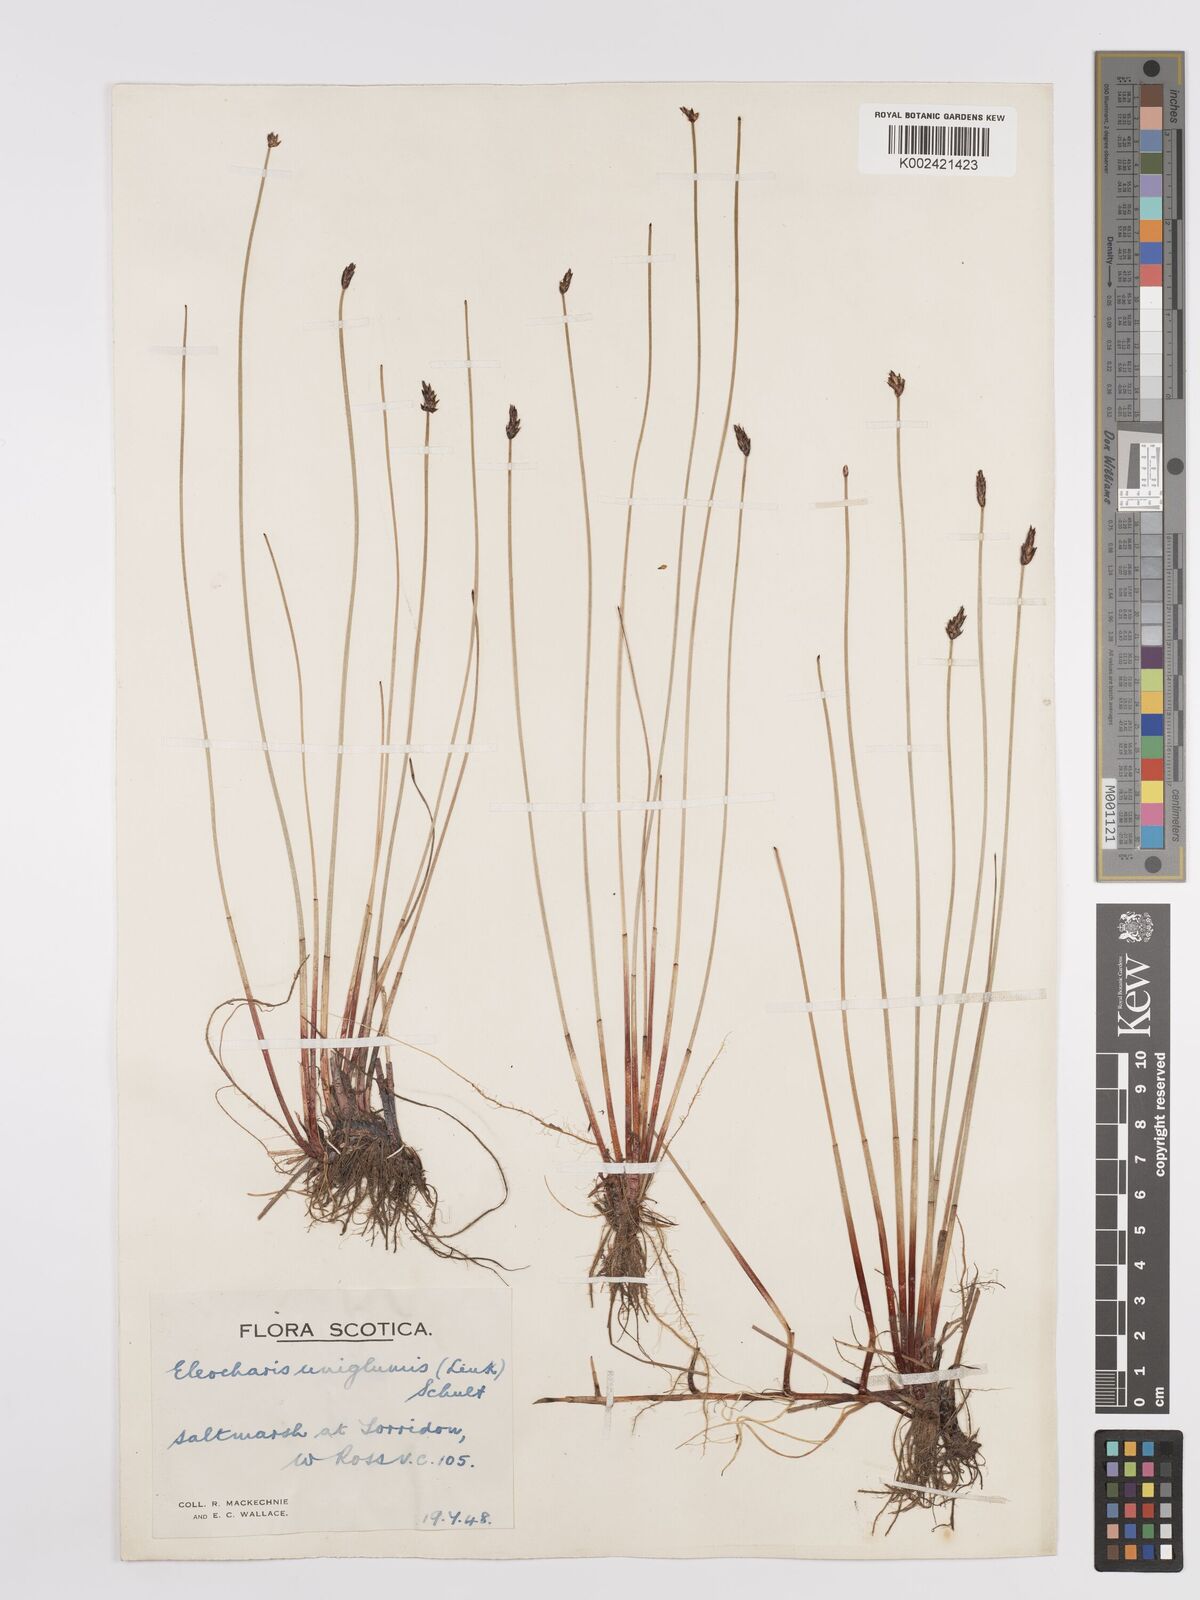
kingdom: Plantae
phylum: Tracheophyta
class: Liliopsida
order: Poales
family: Cyperaceae
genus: Eleocharis
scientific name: Eleocharis uniglumis
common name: Slender spike-rush
